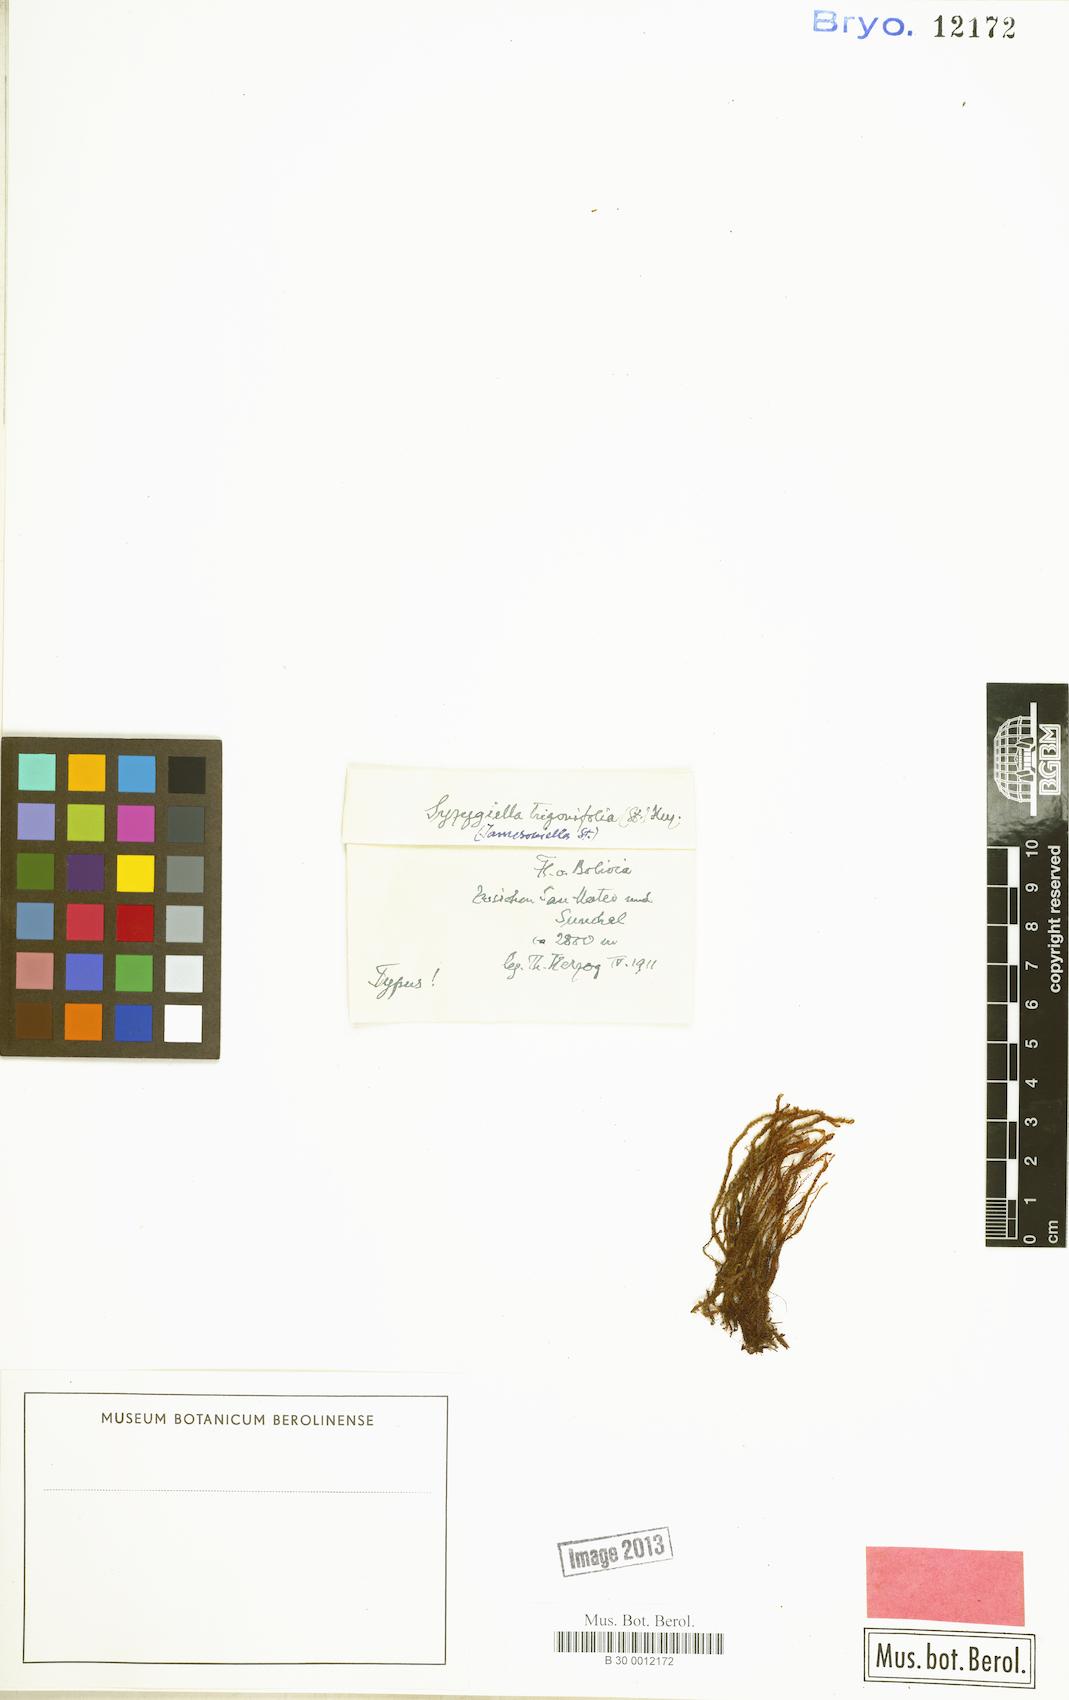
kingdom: Plantae
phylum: Marchantiophyta
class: Jungermanniopsida
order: Jungermanniales
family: Adelanthaceae
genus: Syzygiella
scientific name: Syzygiella trigonifolia
